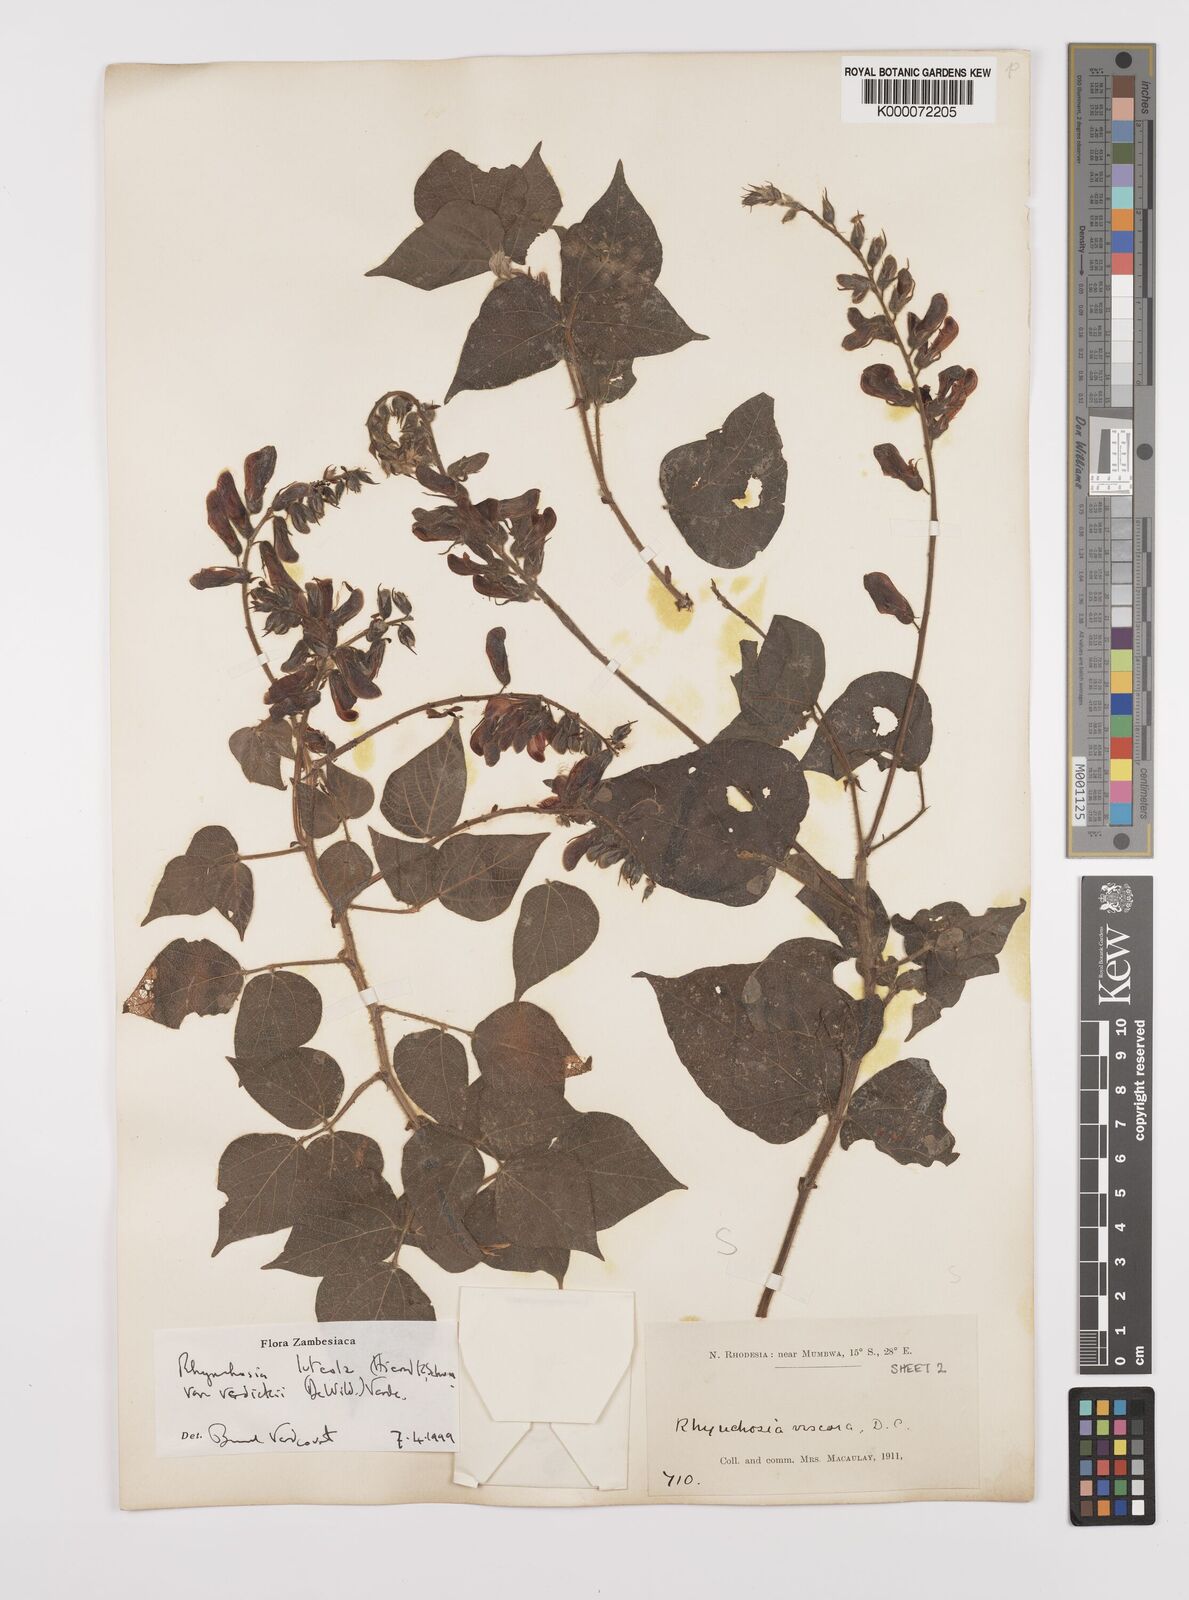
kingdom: Plantae
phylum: Tracheophyta
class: Magnoliopsida
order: Fabales
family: Fabaceae
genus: Rhynchosia
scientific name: Rhynchosia luteola
